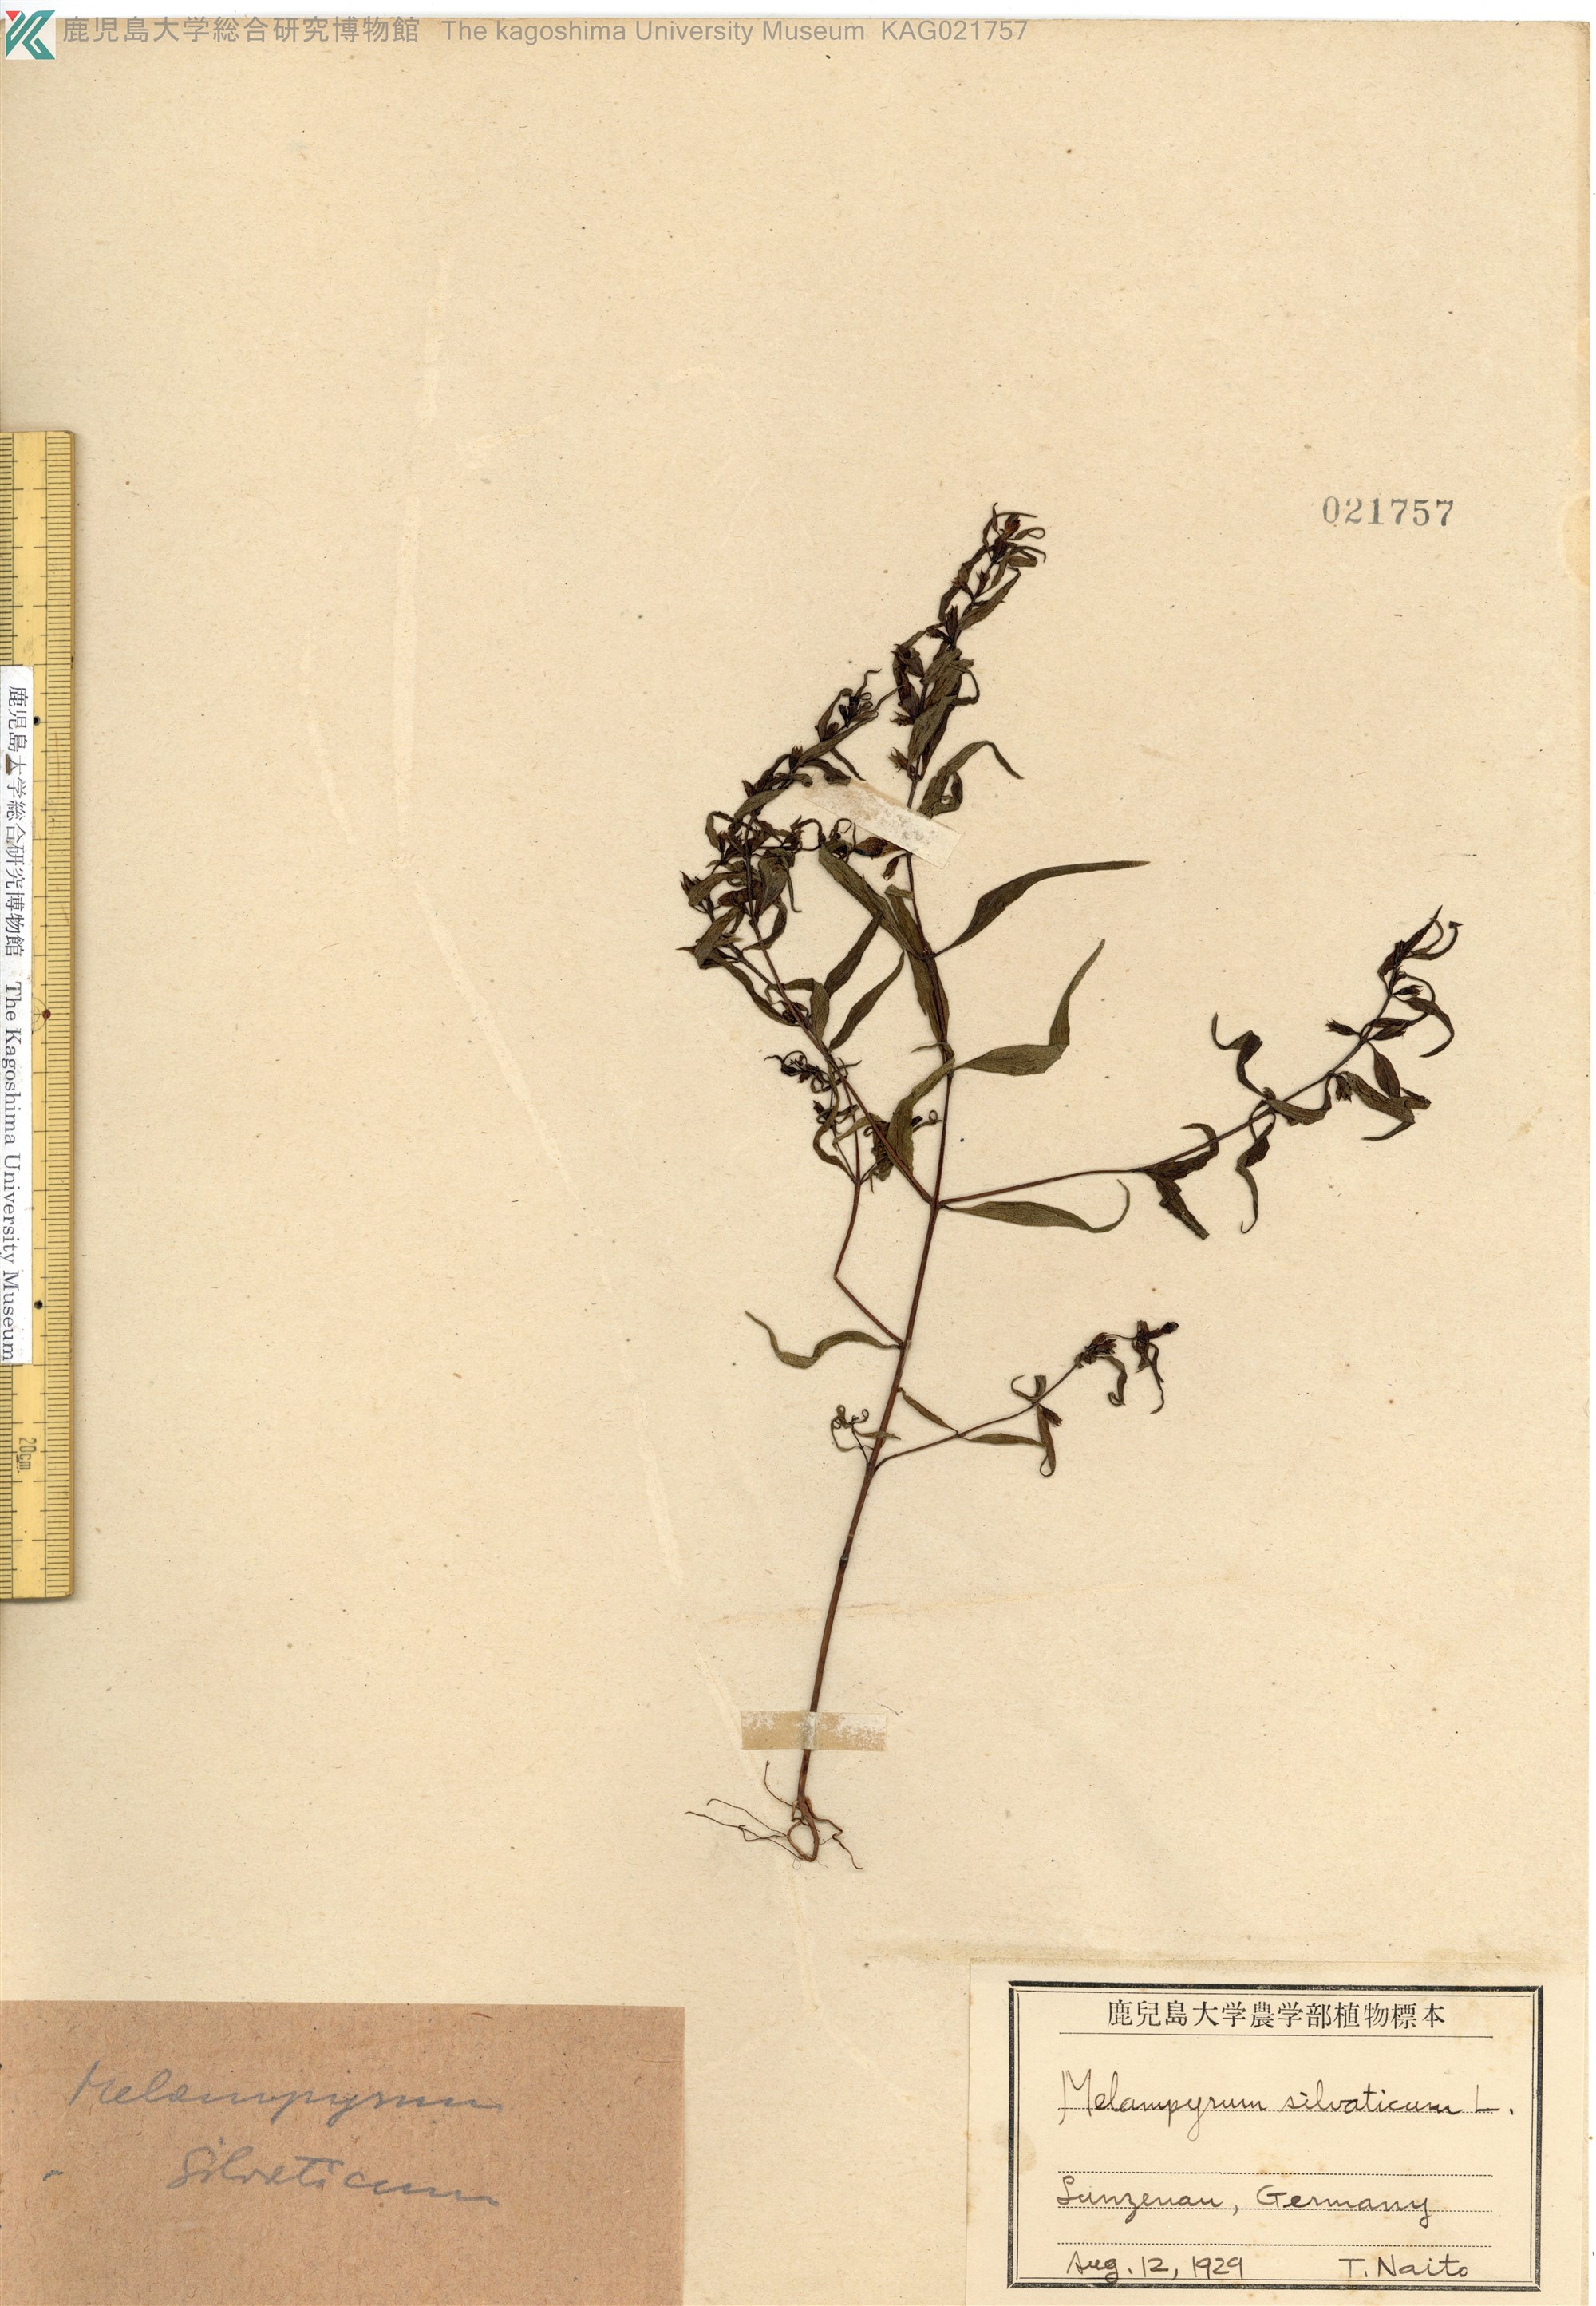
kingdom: Plantae
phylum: Tracheophyta
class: Magnoliopsida
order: Lamiales
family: Orobanchaceae
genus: Melampyrum
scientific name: Melampyrum sylvaticum
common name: Small cow-wheat
